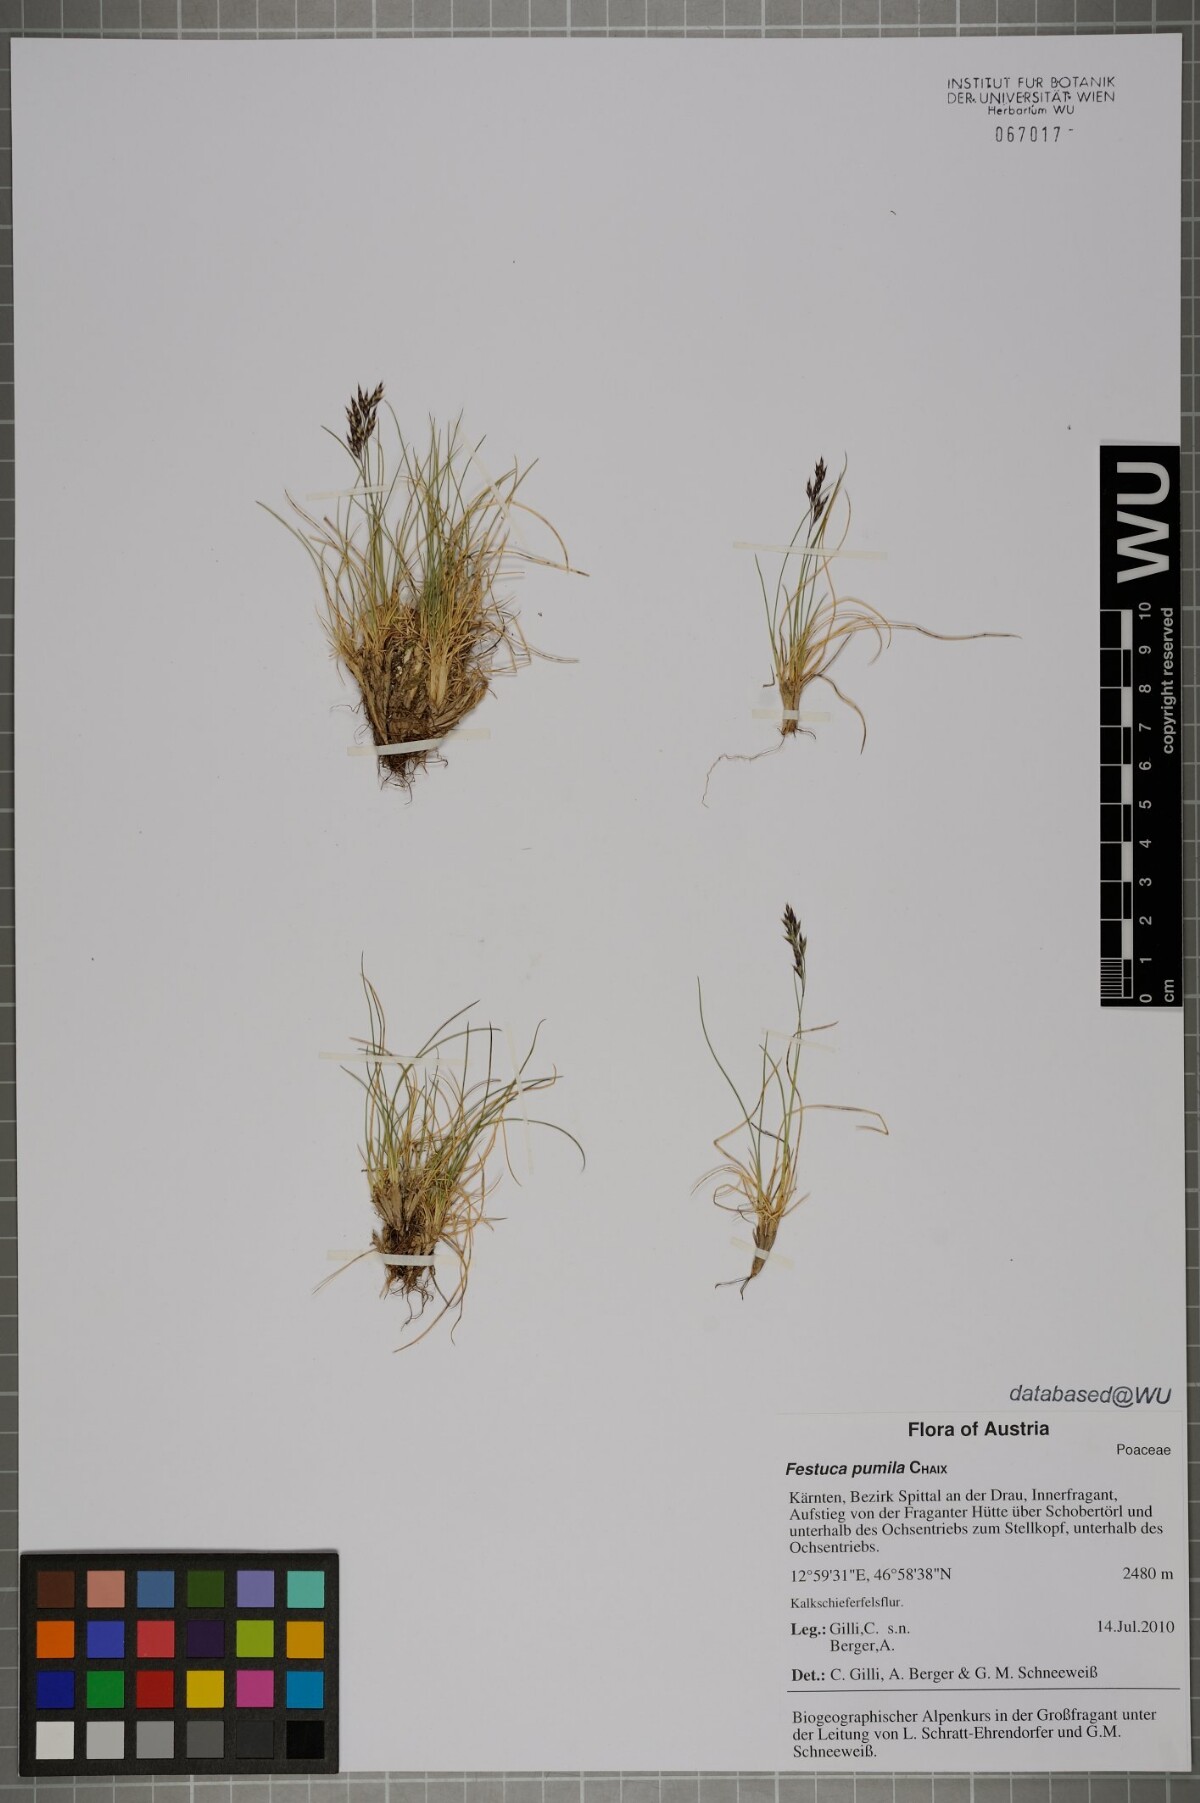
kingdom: Plantae
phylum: Tracheophyta
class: Liliopsida
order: Poales
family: Poaceae
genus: Festuca
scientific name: Festuca quadriflora
